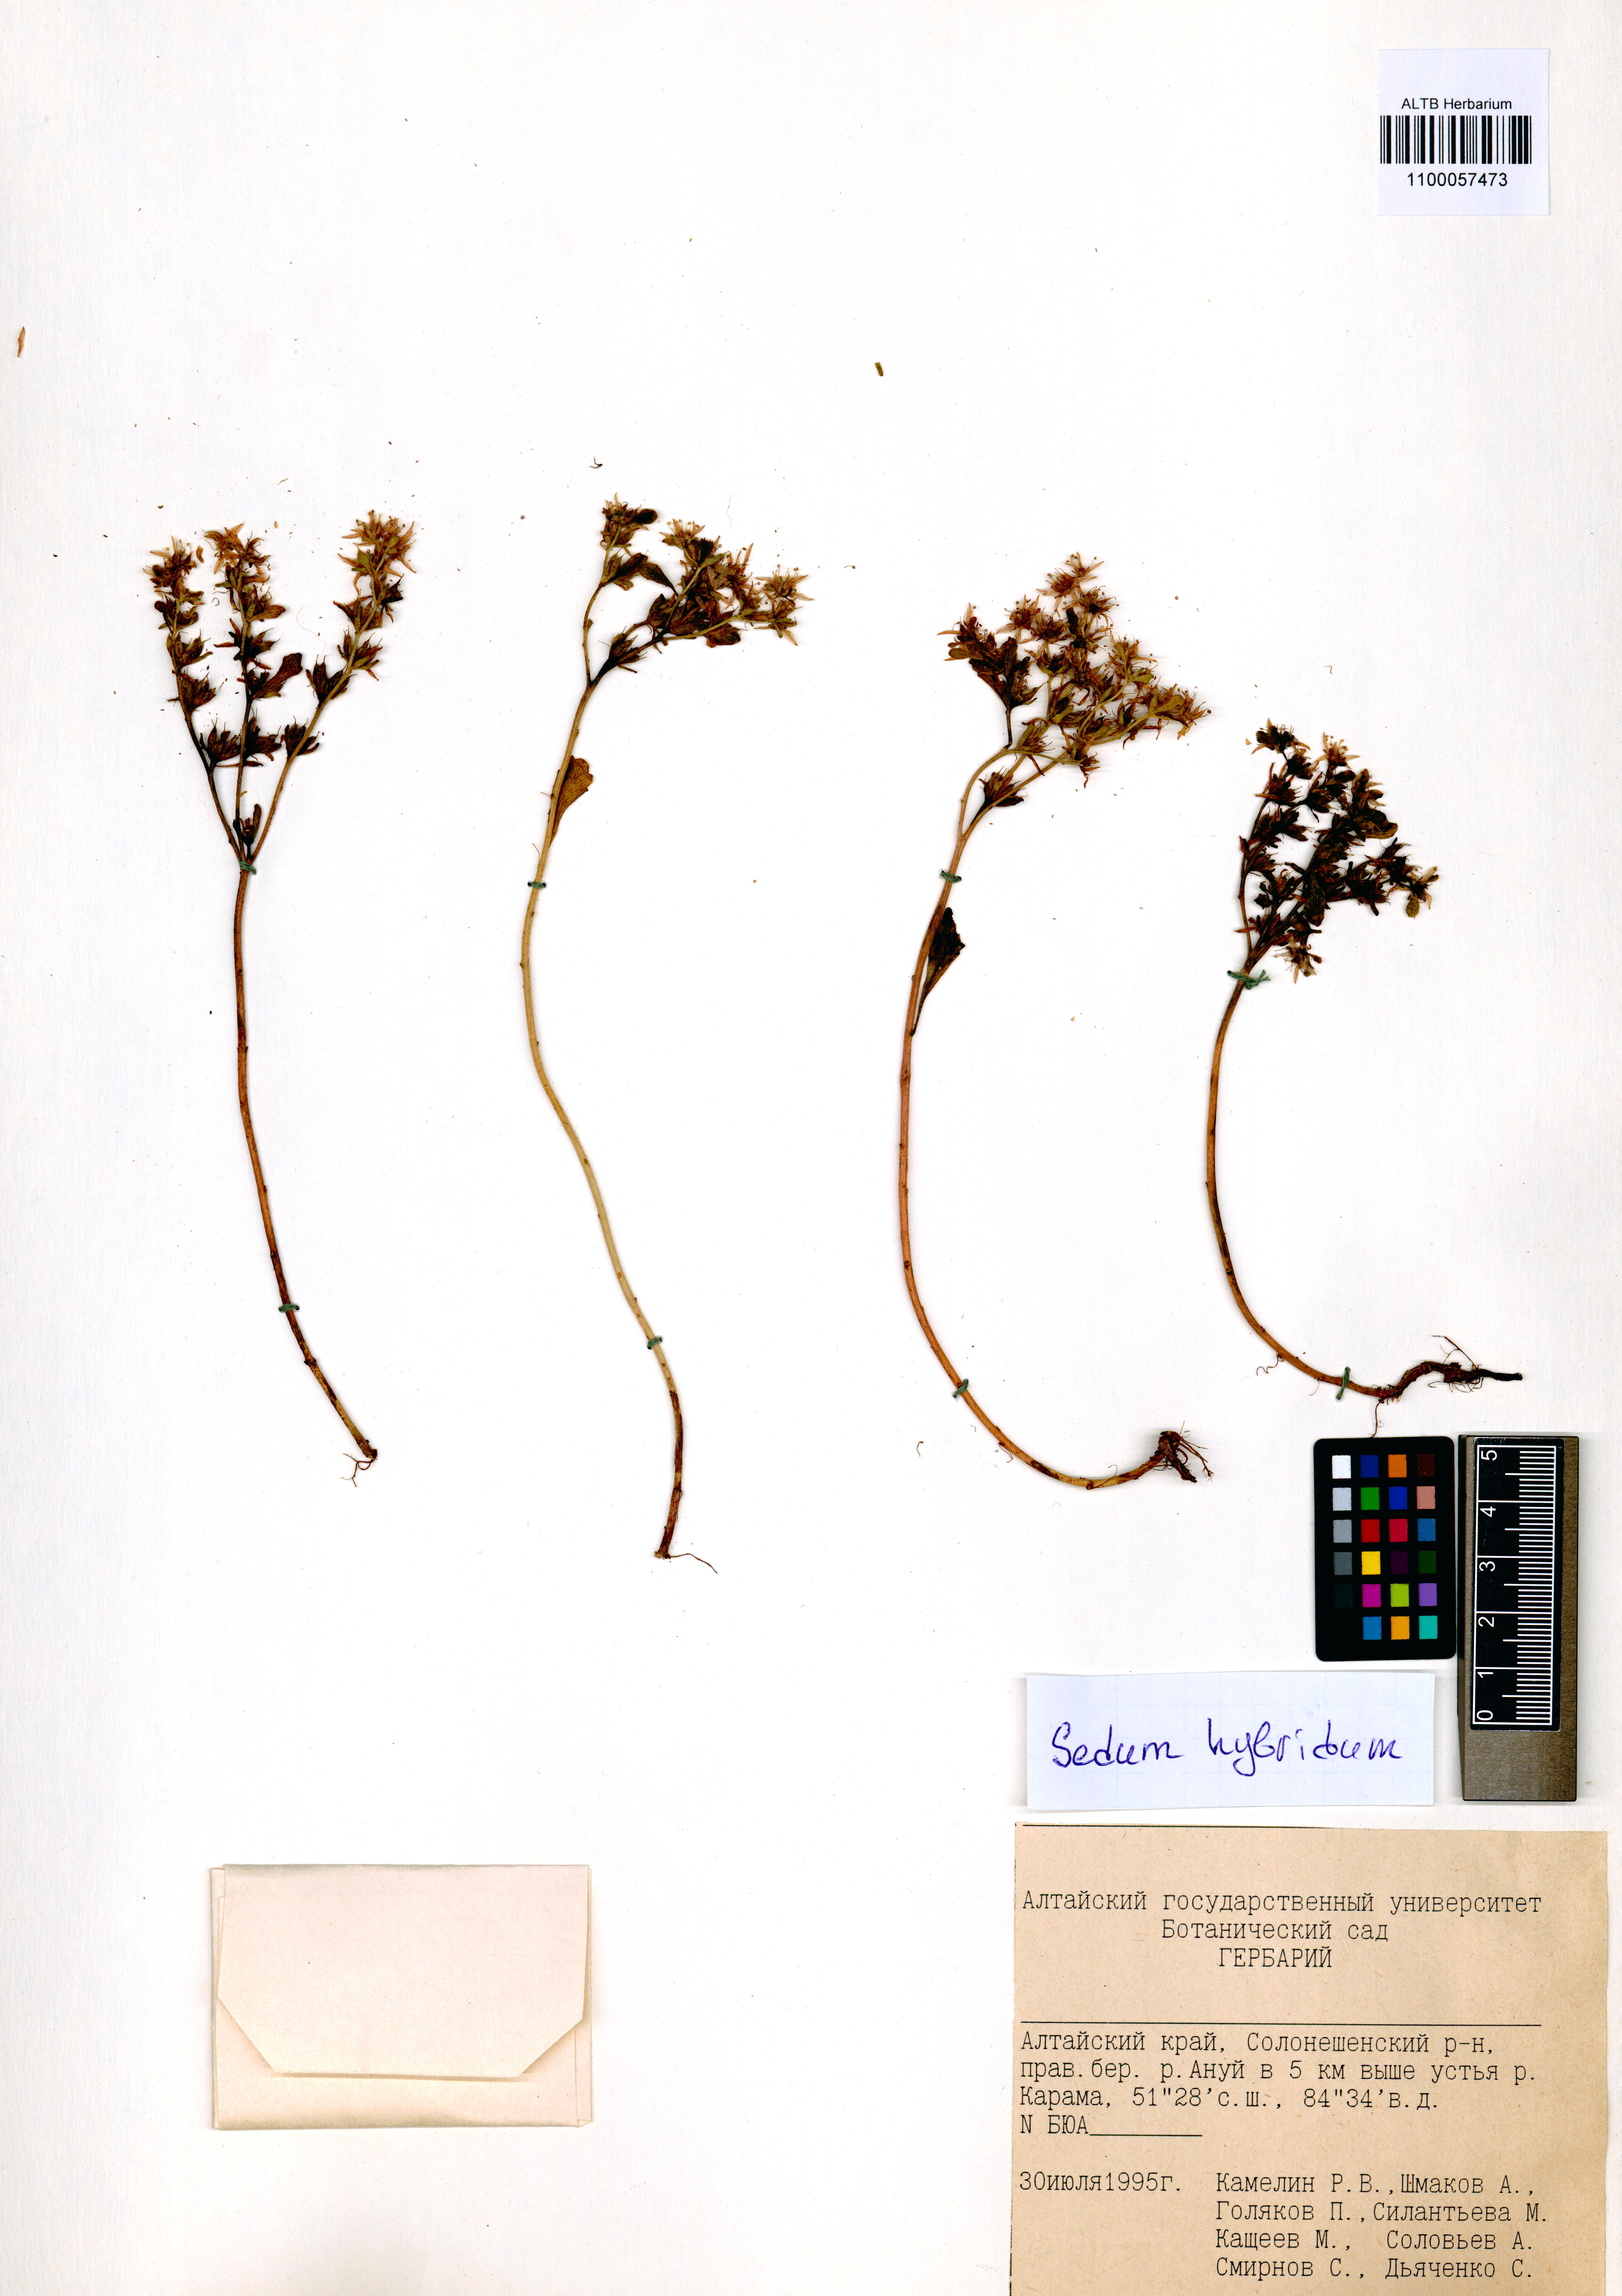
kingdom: Plantae
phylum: Tracheophyta
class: Magnoliopsida
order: Saxifragales
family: Crassulaceae
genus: Phedimus
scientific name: Phedimus hybridus
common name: Hybrid stonecrop
